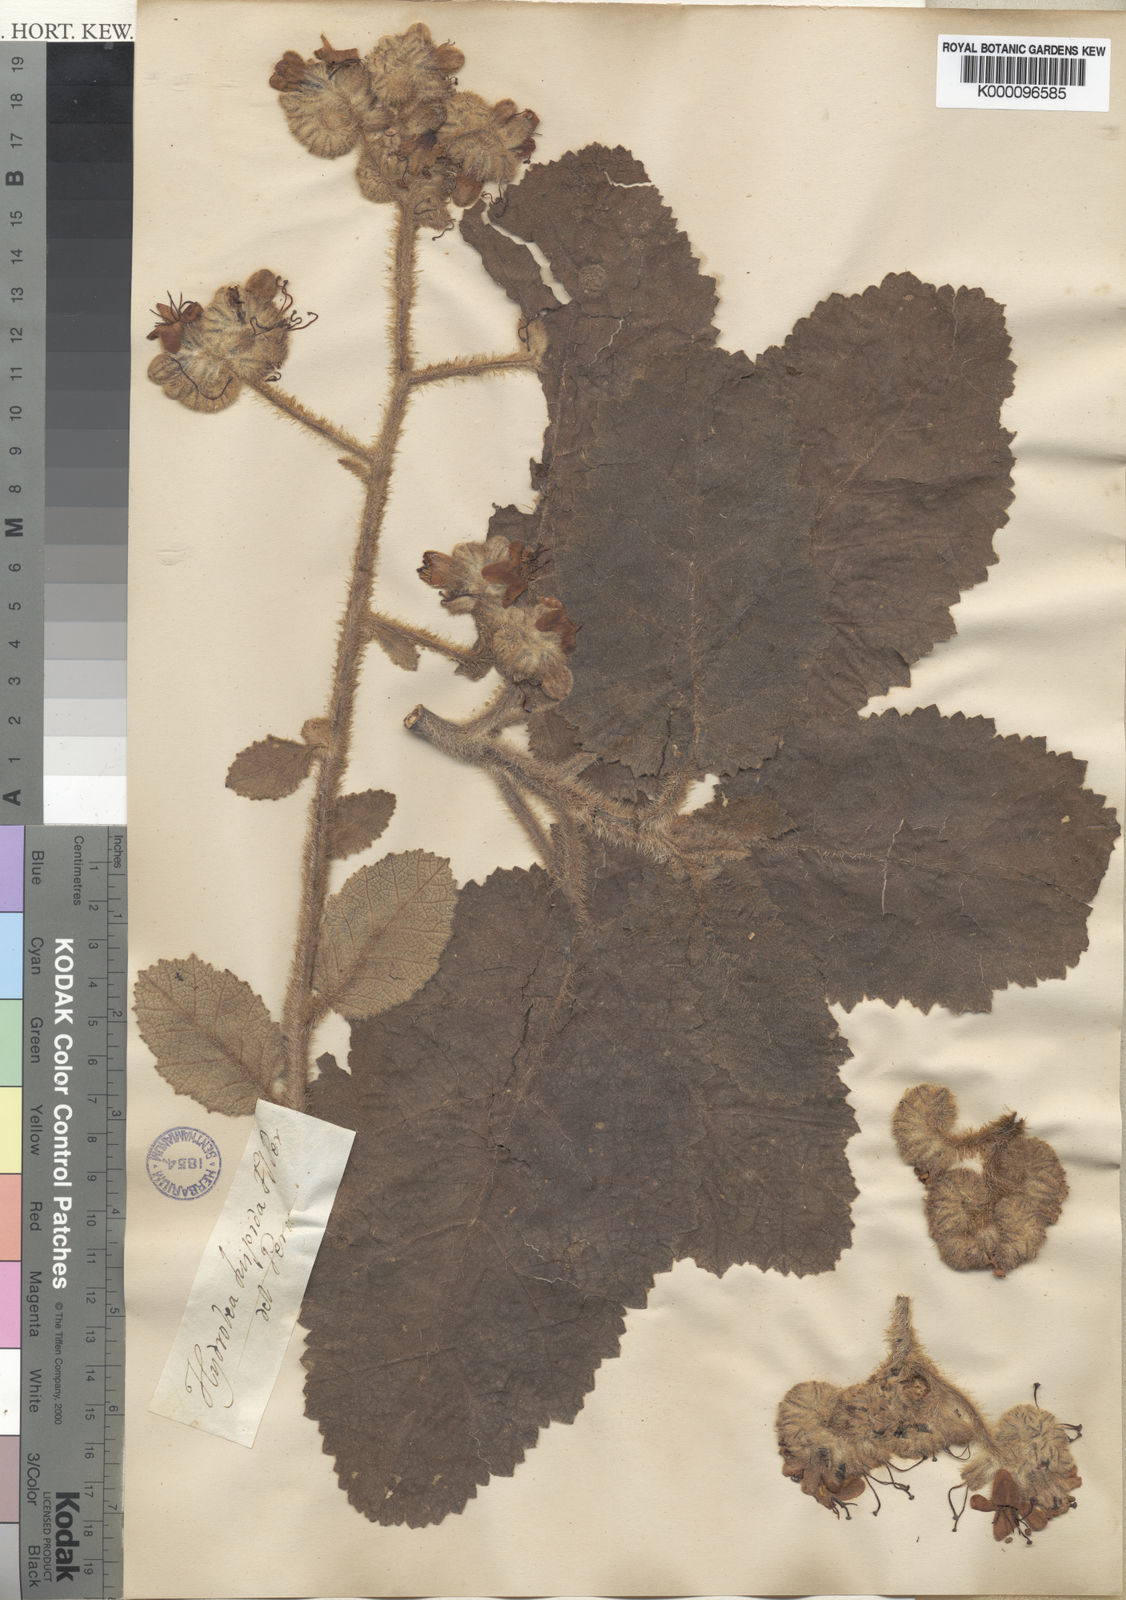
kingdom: Plantae
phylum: Tracheophyta
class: Magnoliopsida
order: Solanales
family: Hydroleaceae
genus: Hydrolea
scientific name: Hydrolea
